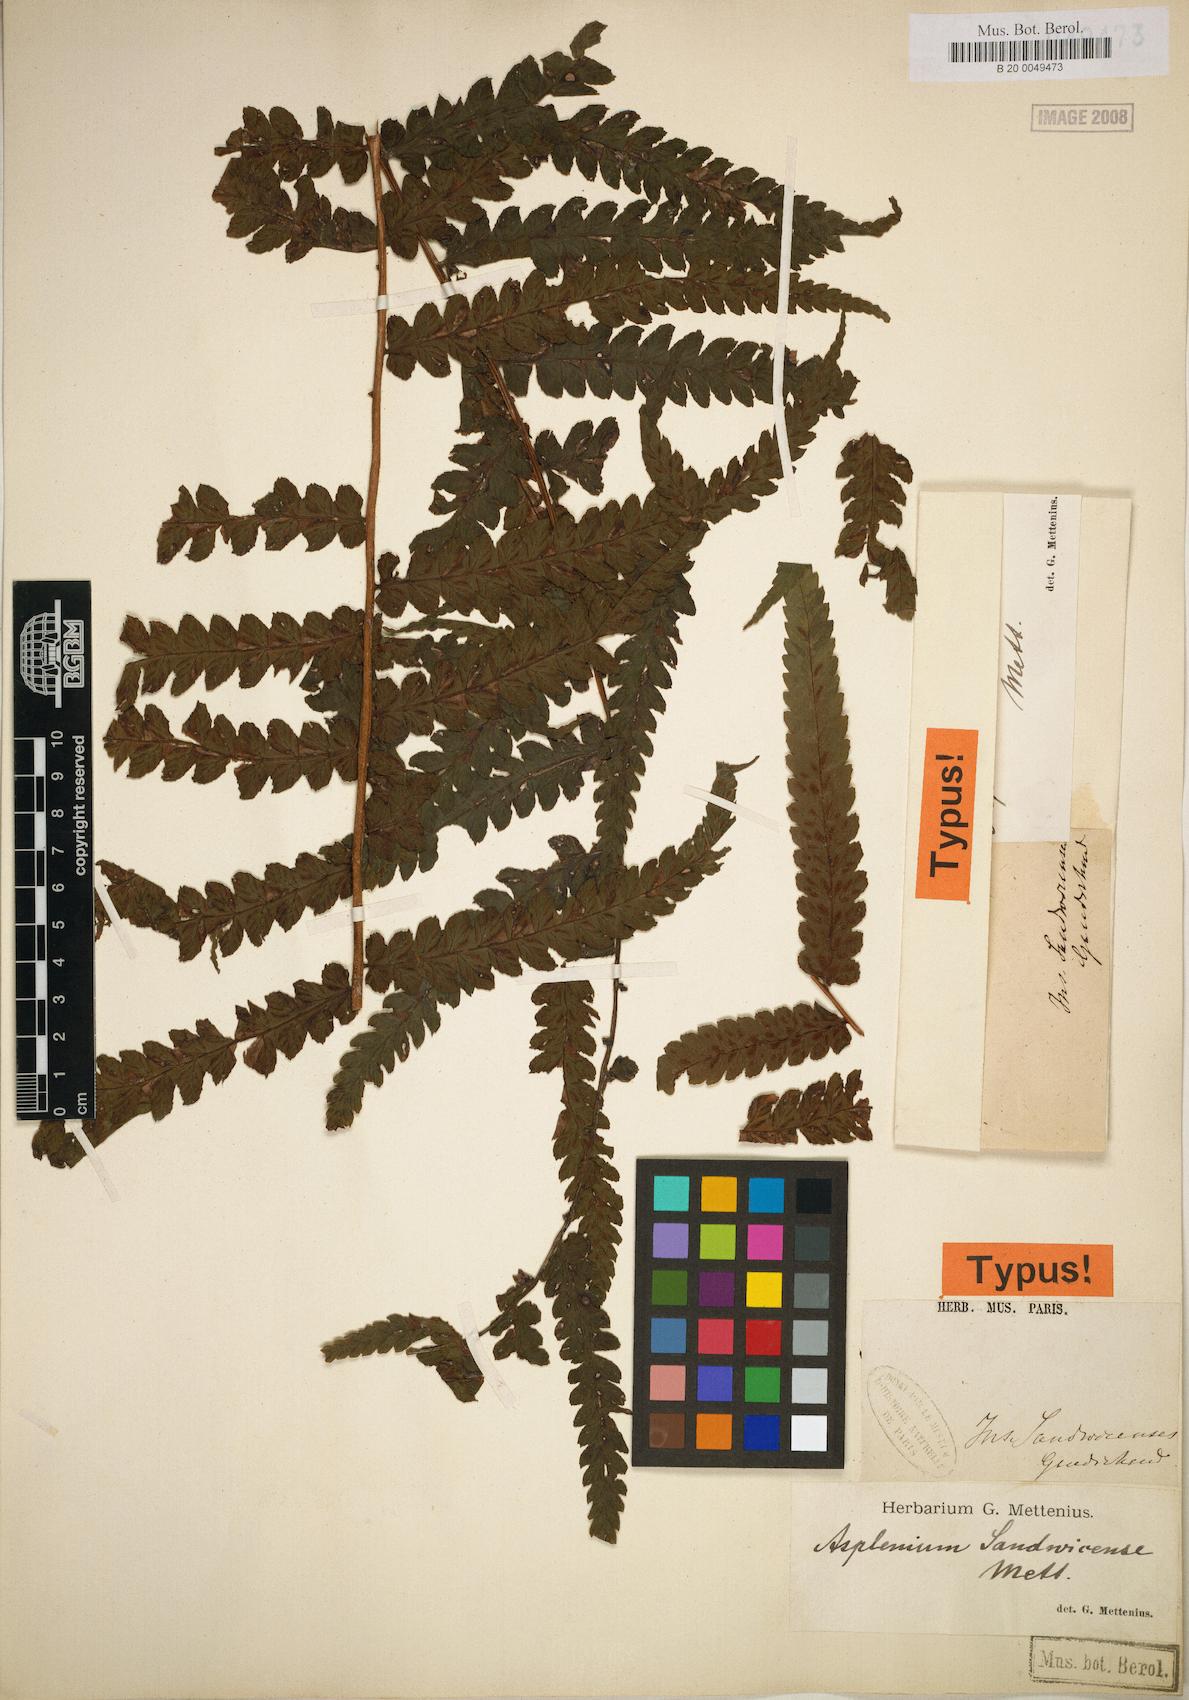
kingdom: Plantae
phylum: Tracheophyta
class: Polypodiopsida
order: Polypodiales
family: Athyriaceae
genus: Diplazium
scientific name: Diplazium sandwichianum
